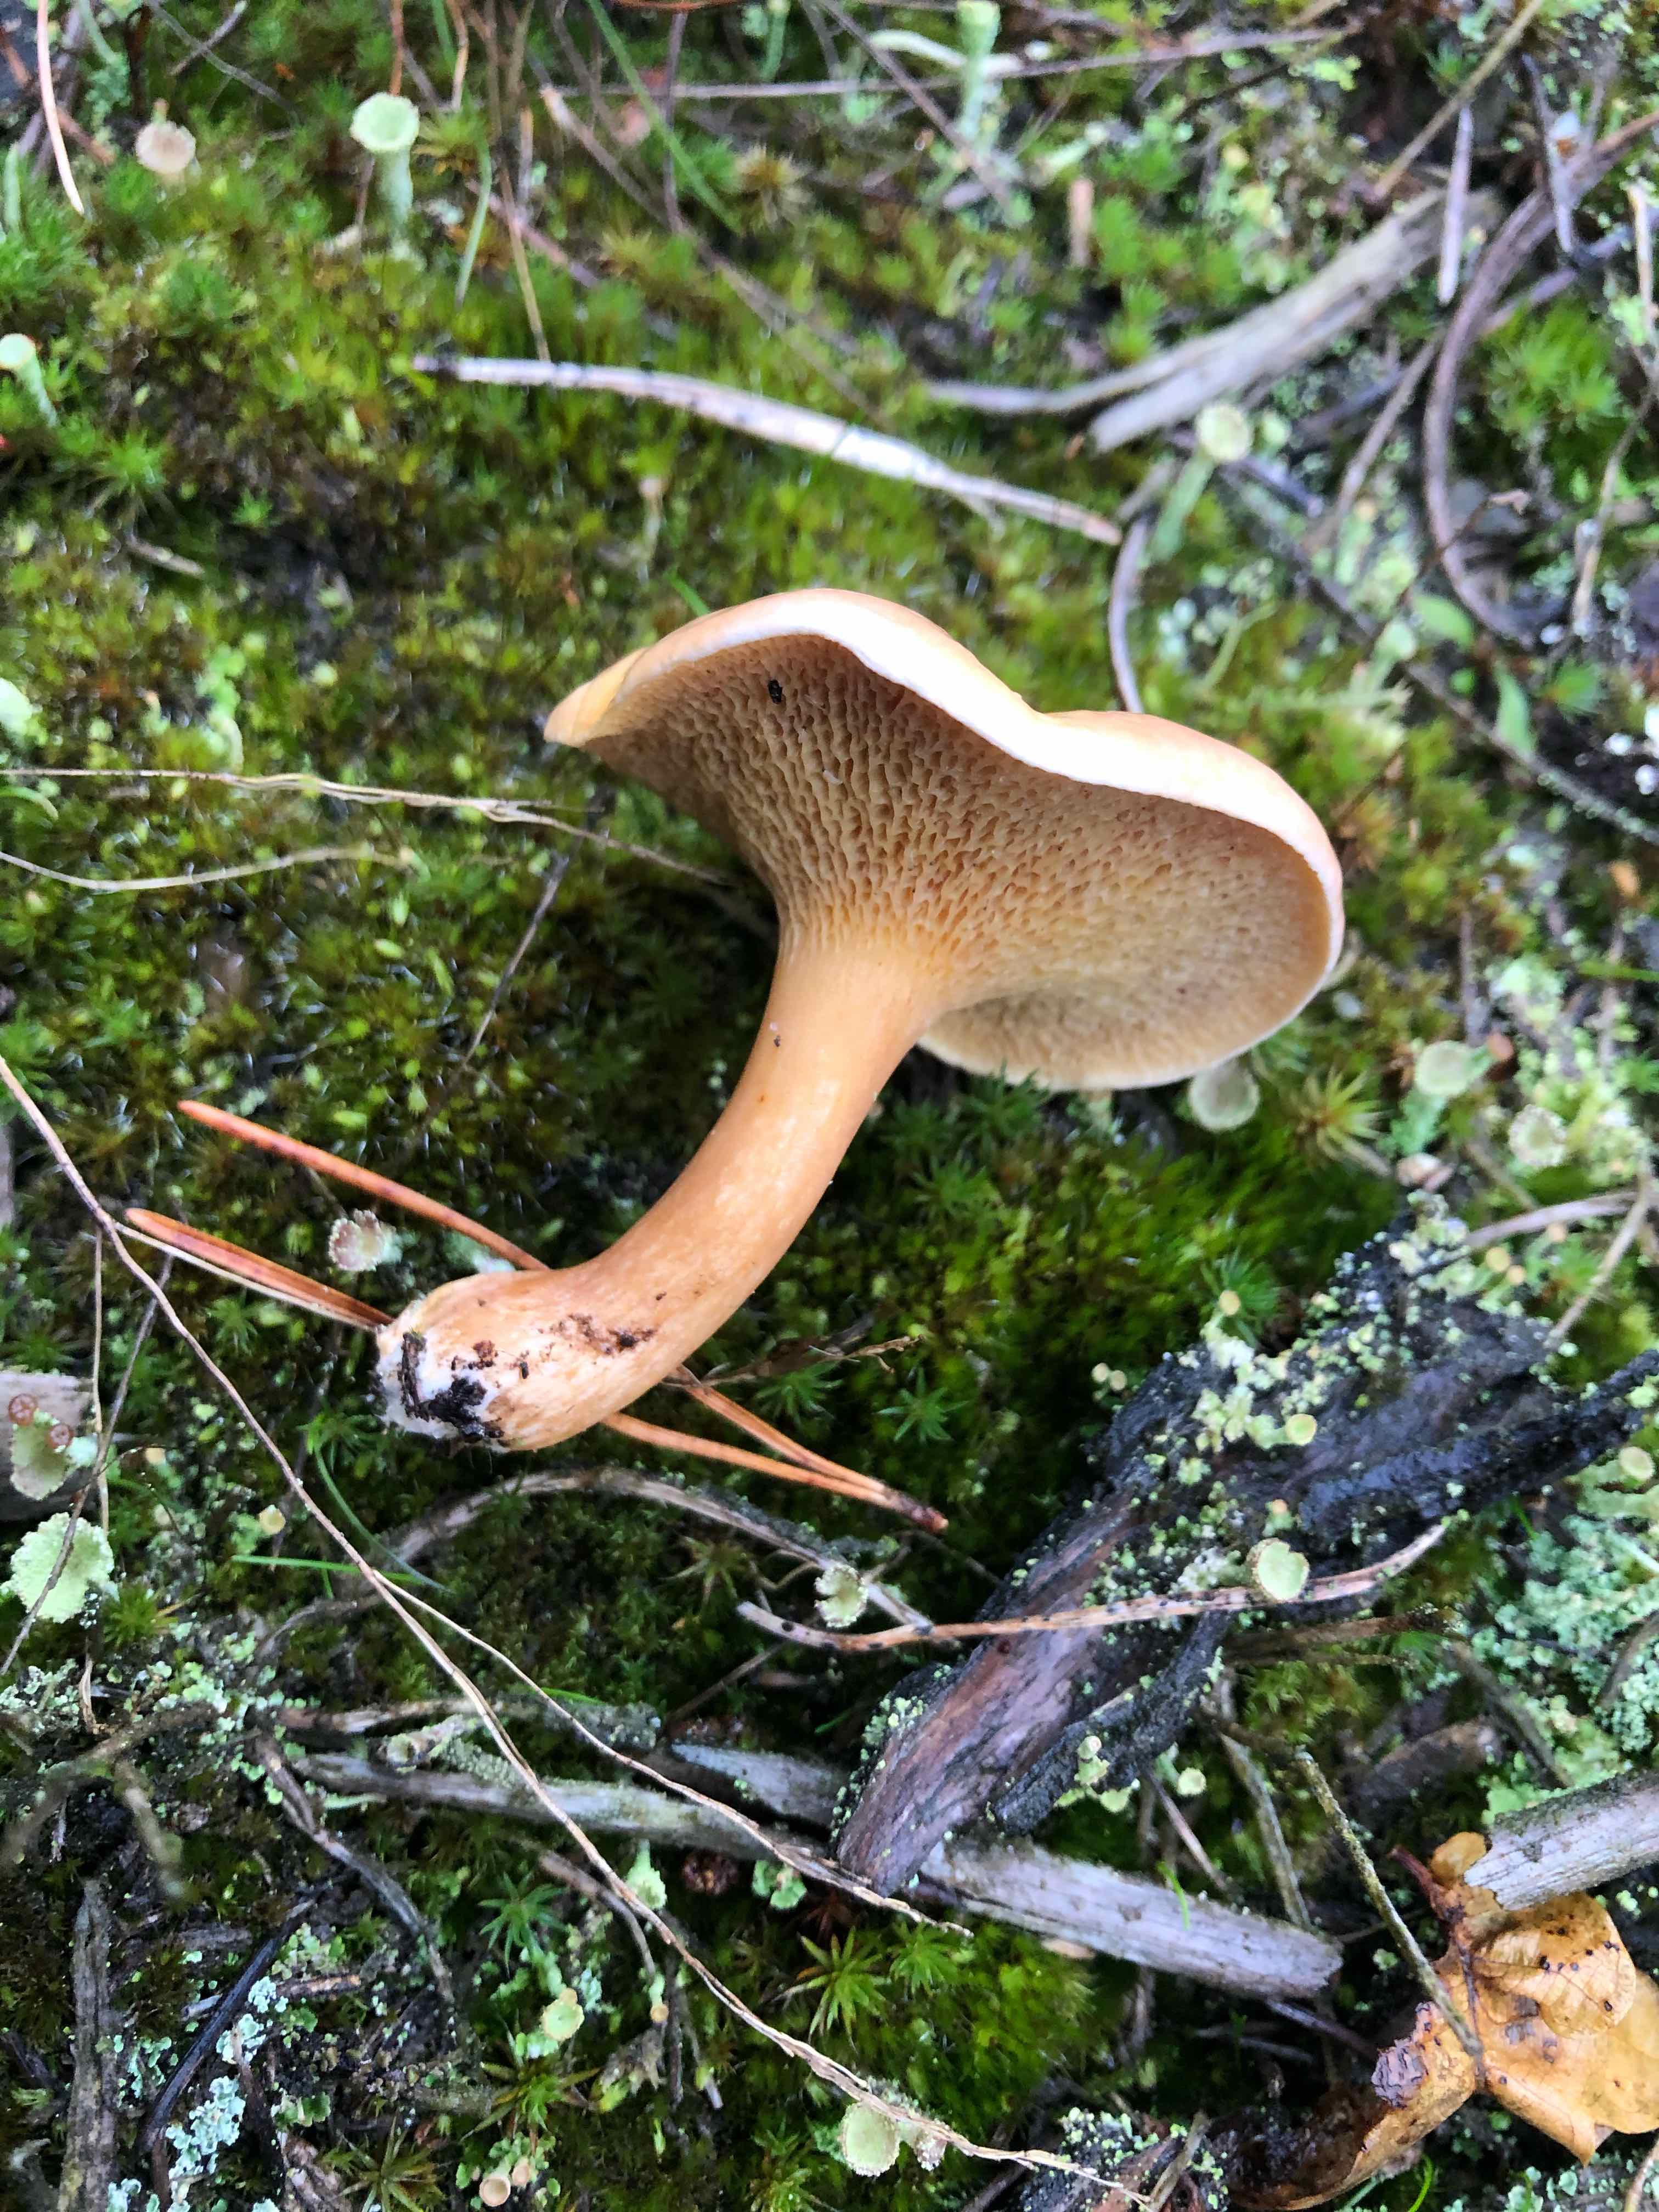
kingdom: Fungi
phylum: Basidiomycota
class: Agaricomycetes
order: Boletales
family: Suillaceae
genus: Suillus
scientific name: Suillus bovinus
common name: grovporet slimrørhat
